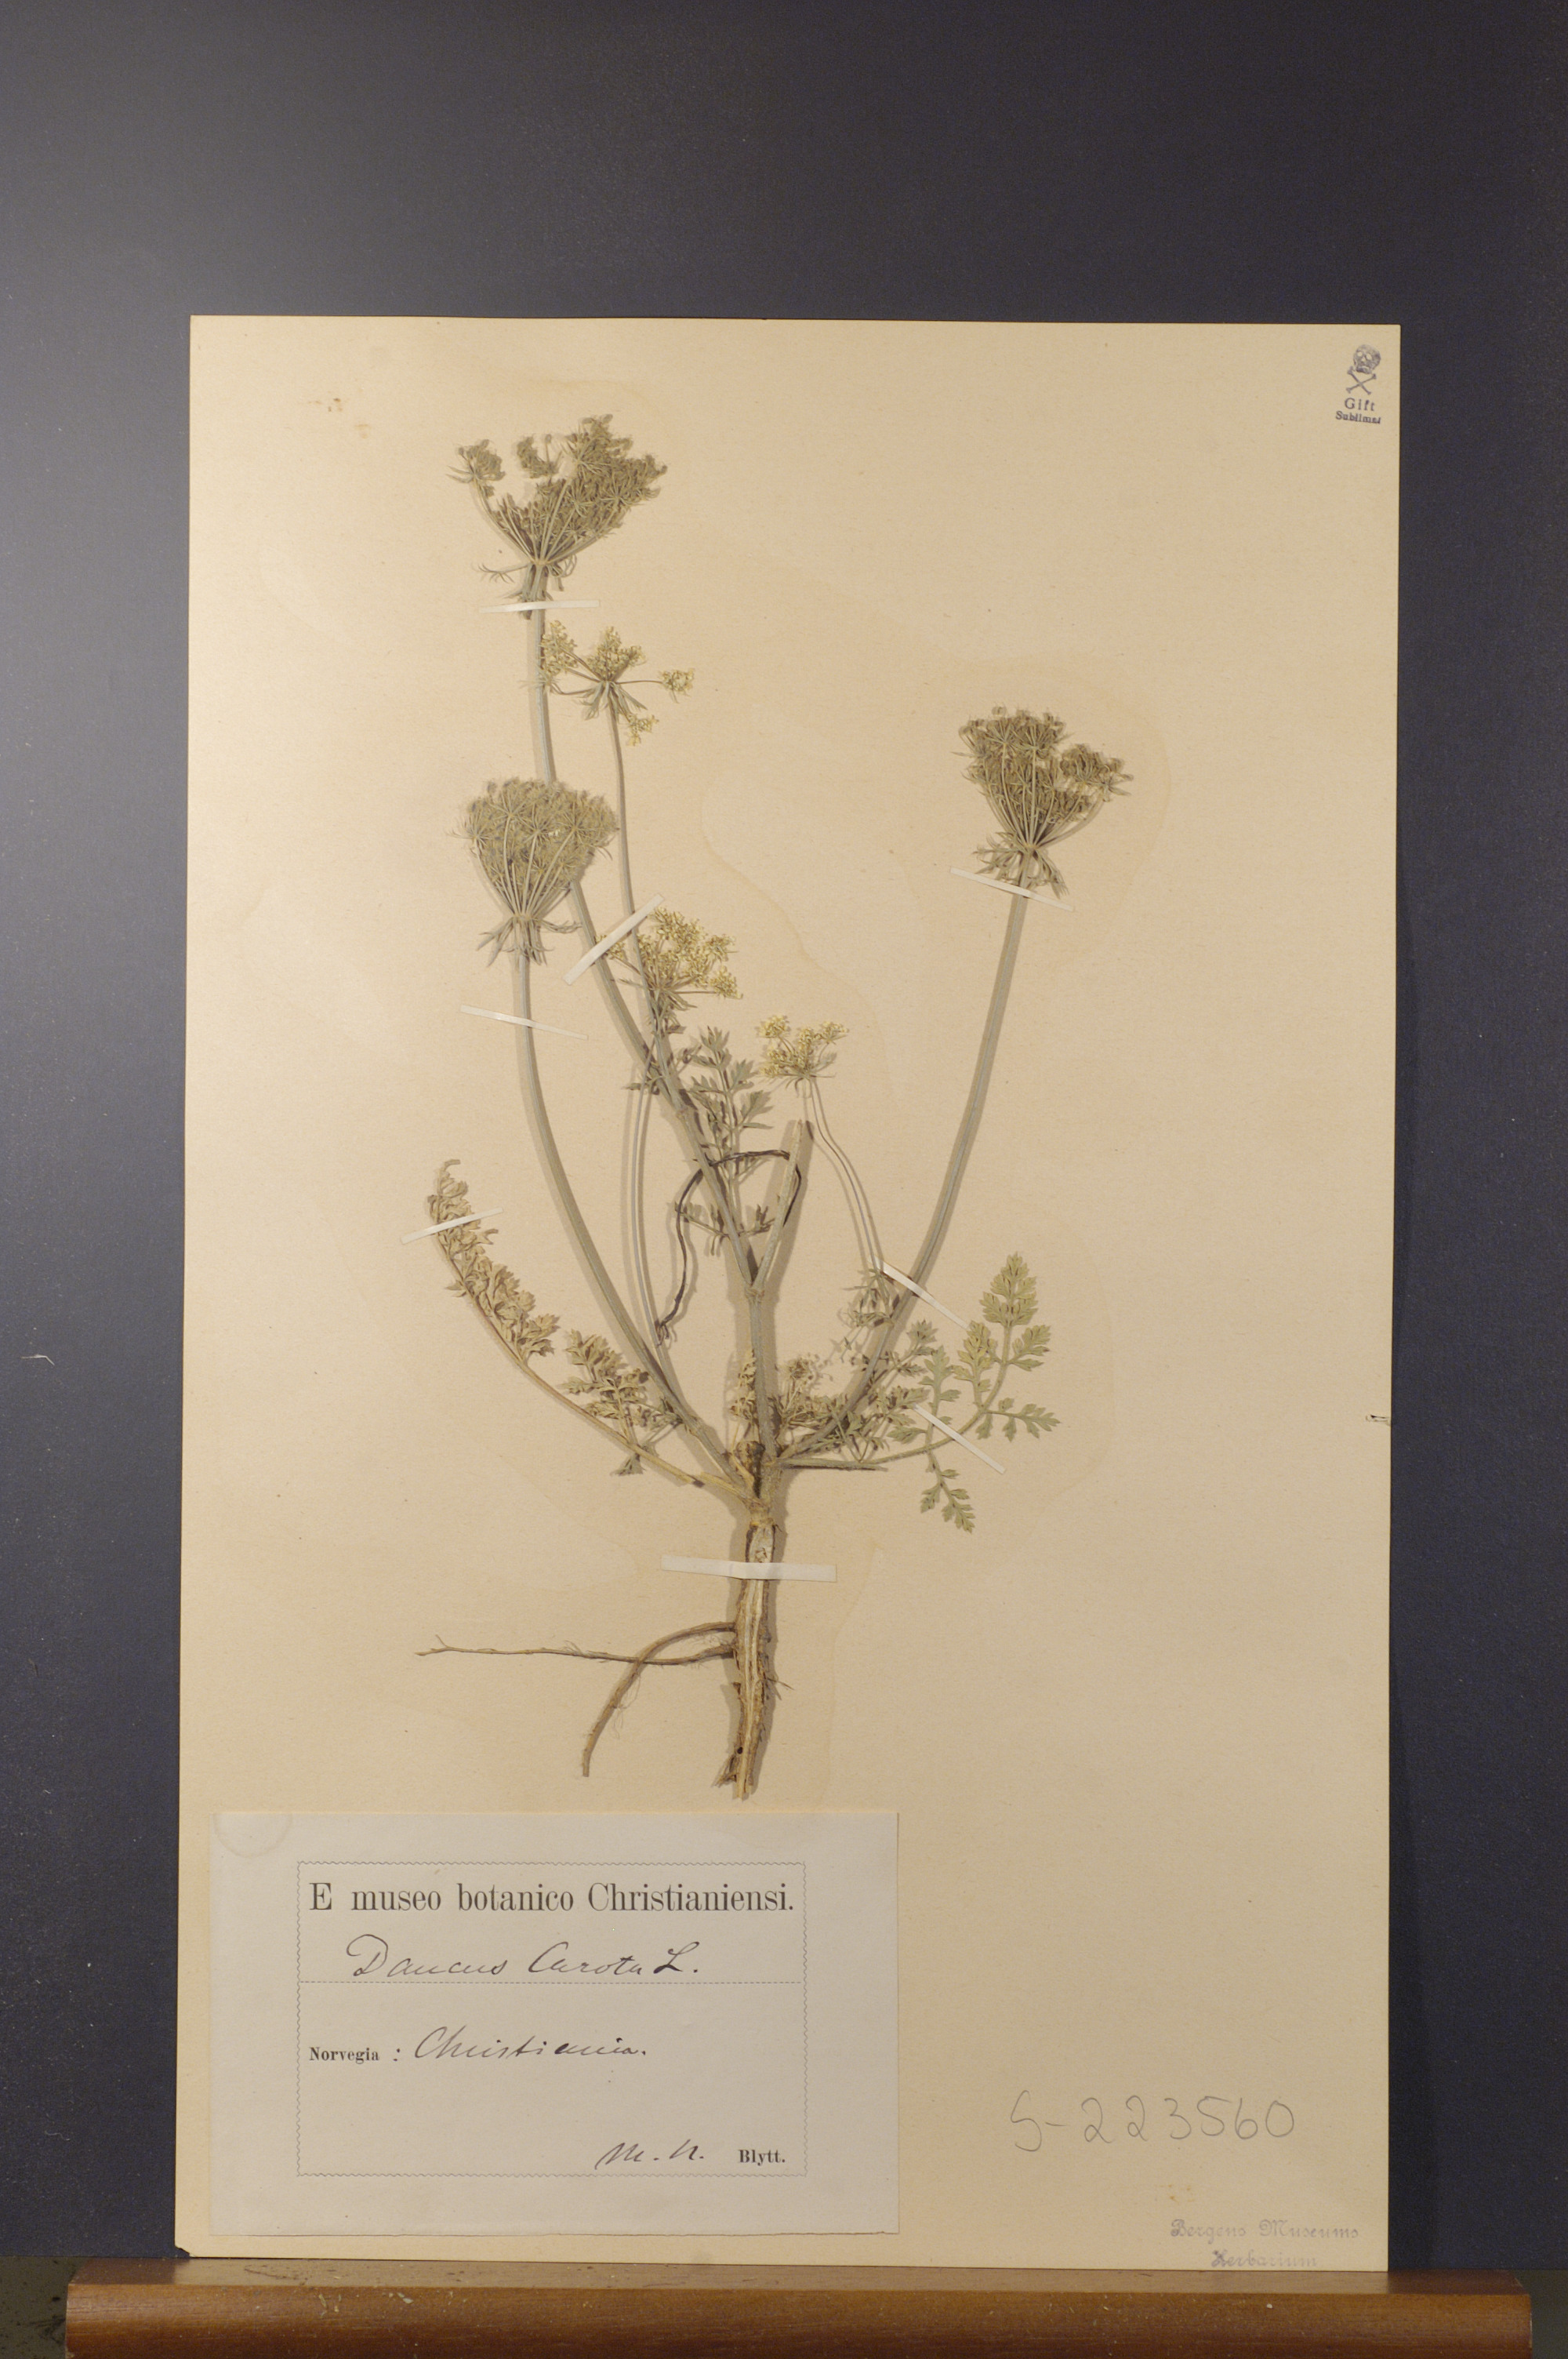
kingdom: Plantae
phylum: Tracheophyta
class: Magnoliopsida
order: Apiales
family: Apiaceae
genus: Daucus
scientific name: Daucus carota
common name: Wild carrot
